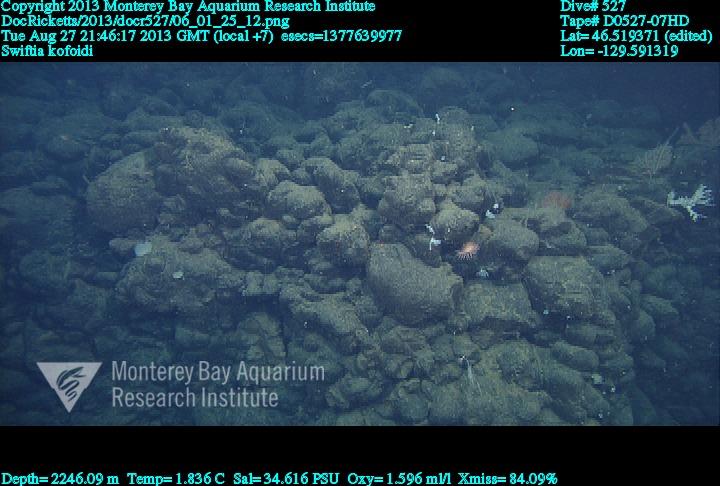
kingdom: Animalia
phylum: Cnidaria
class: Anthozoa
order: Malacalcyonacea
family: Gorgoniidae
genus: Callistephanus
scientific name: Callistephanus kofoidi
